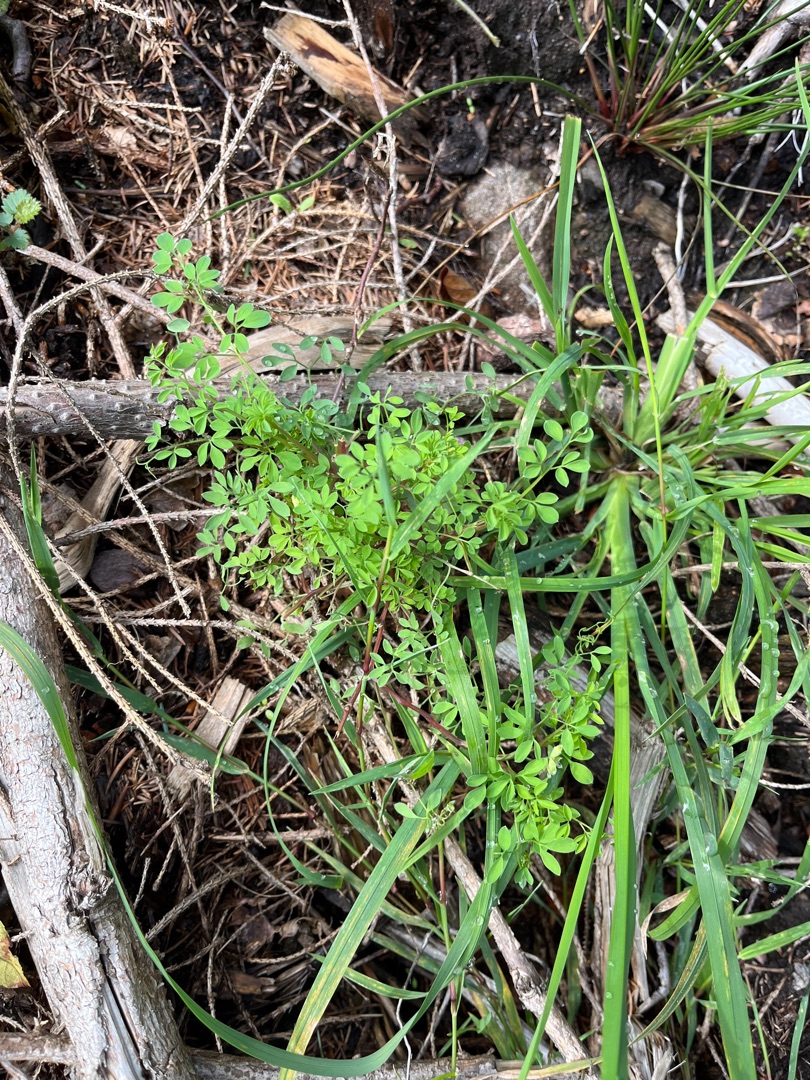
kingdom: Plantae
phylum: Tracheophyta
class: Magnoliopsida
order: Ranunculales
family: Papaveraceae
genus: Ceratocapnos
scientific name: Ceratocapnos claviculata
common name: Klatrende lærkespore
